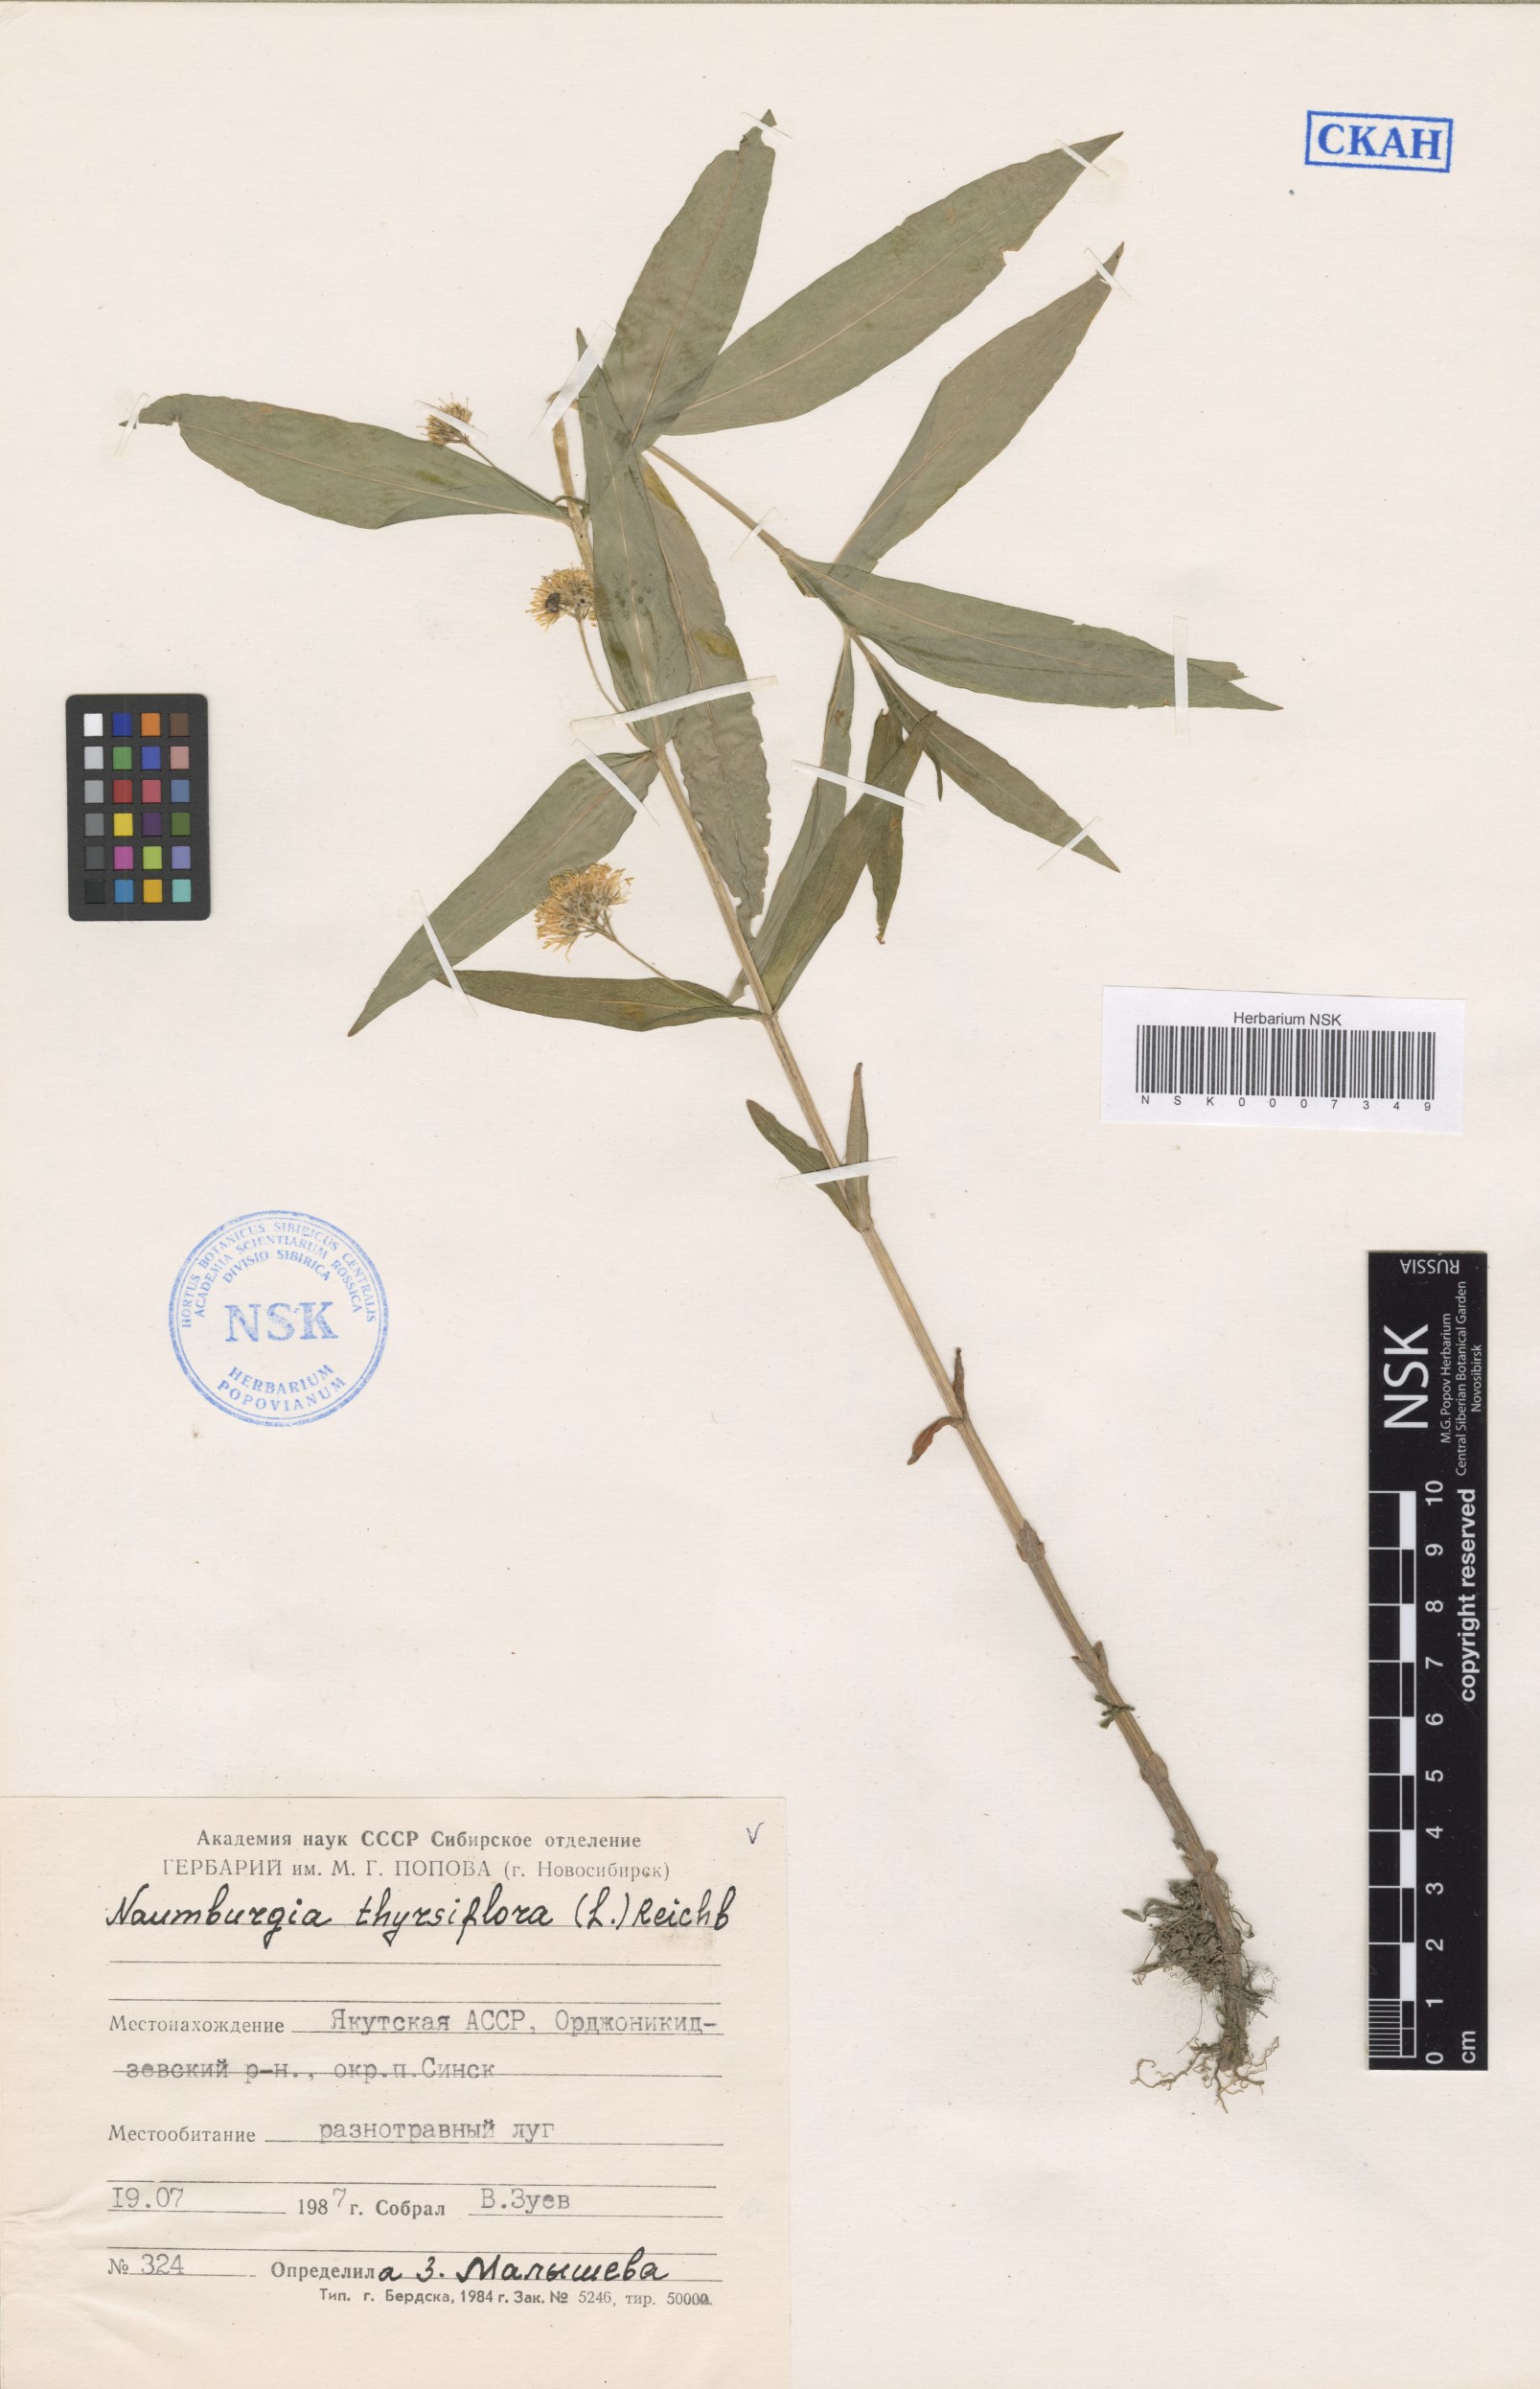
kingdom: Plantae
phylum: Tracheophyta
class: Magnoliopsida
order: Ericales
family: Primulaceae
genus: Lysimachia
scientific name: Lysimachia thyrsiflora
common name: Tufted loosestrife
